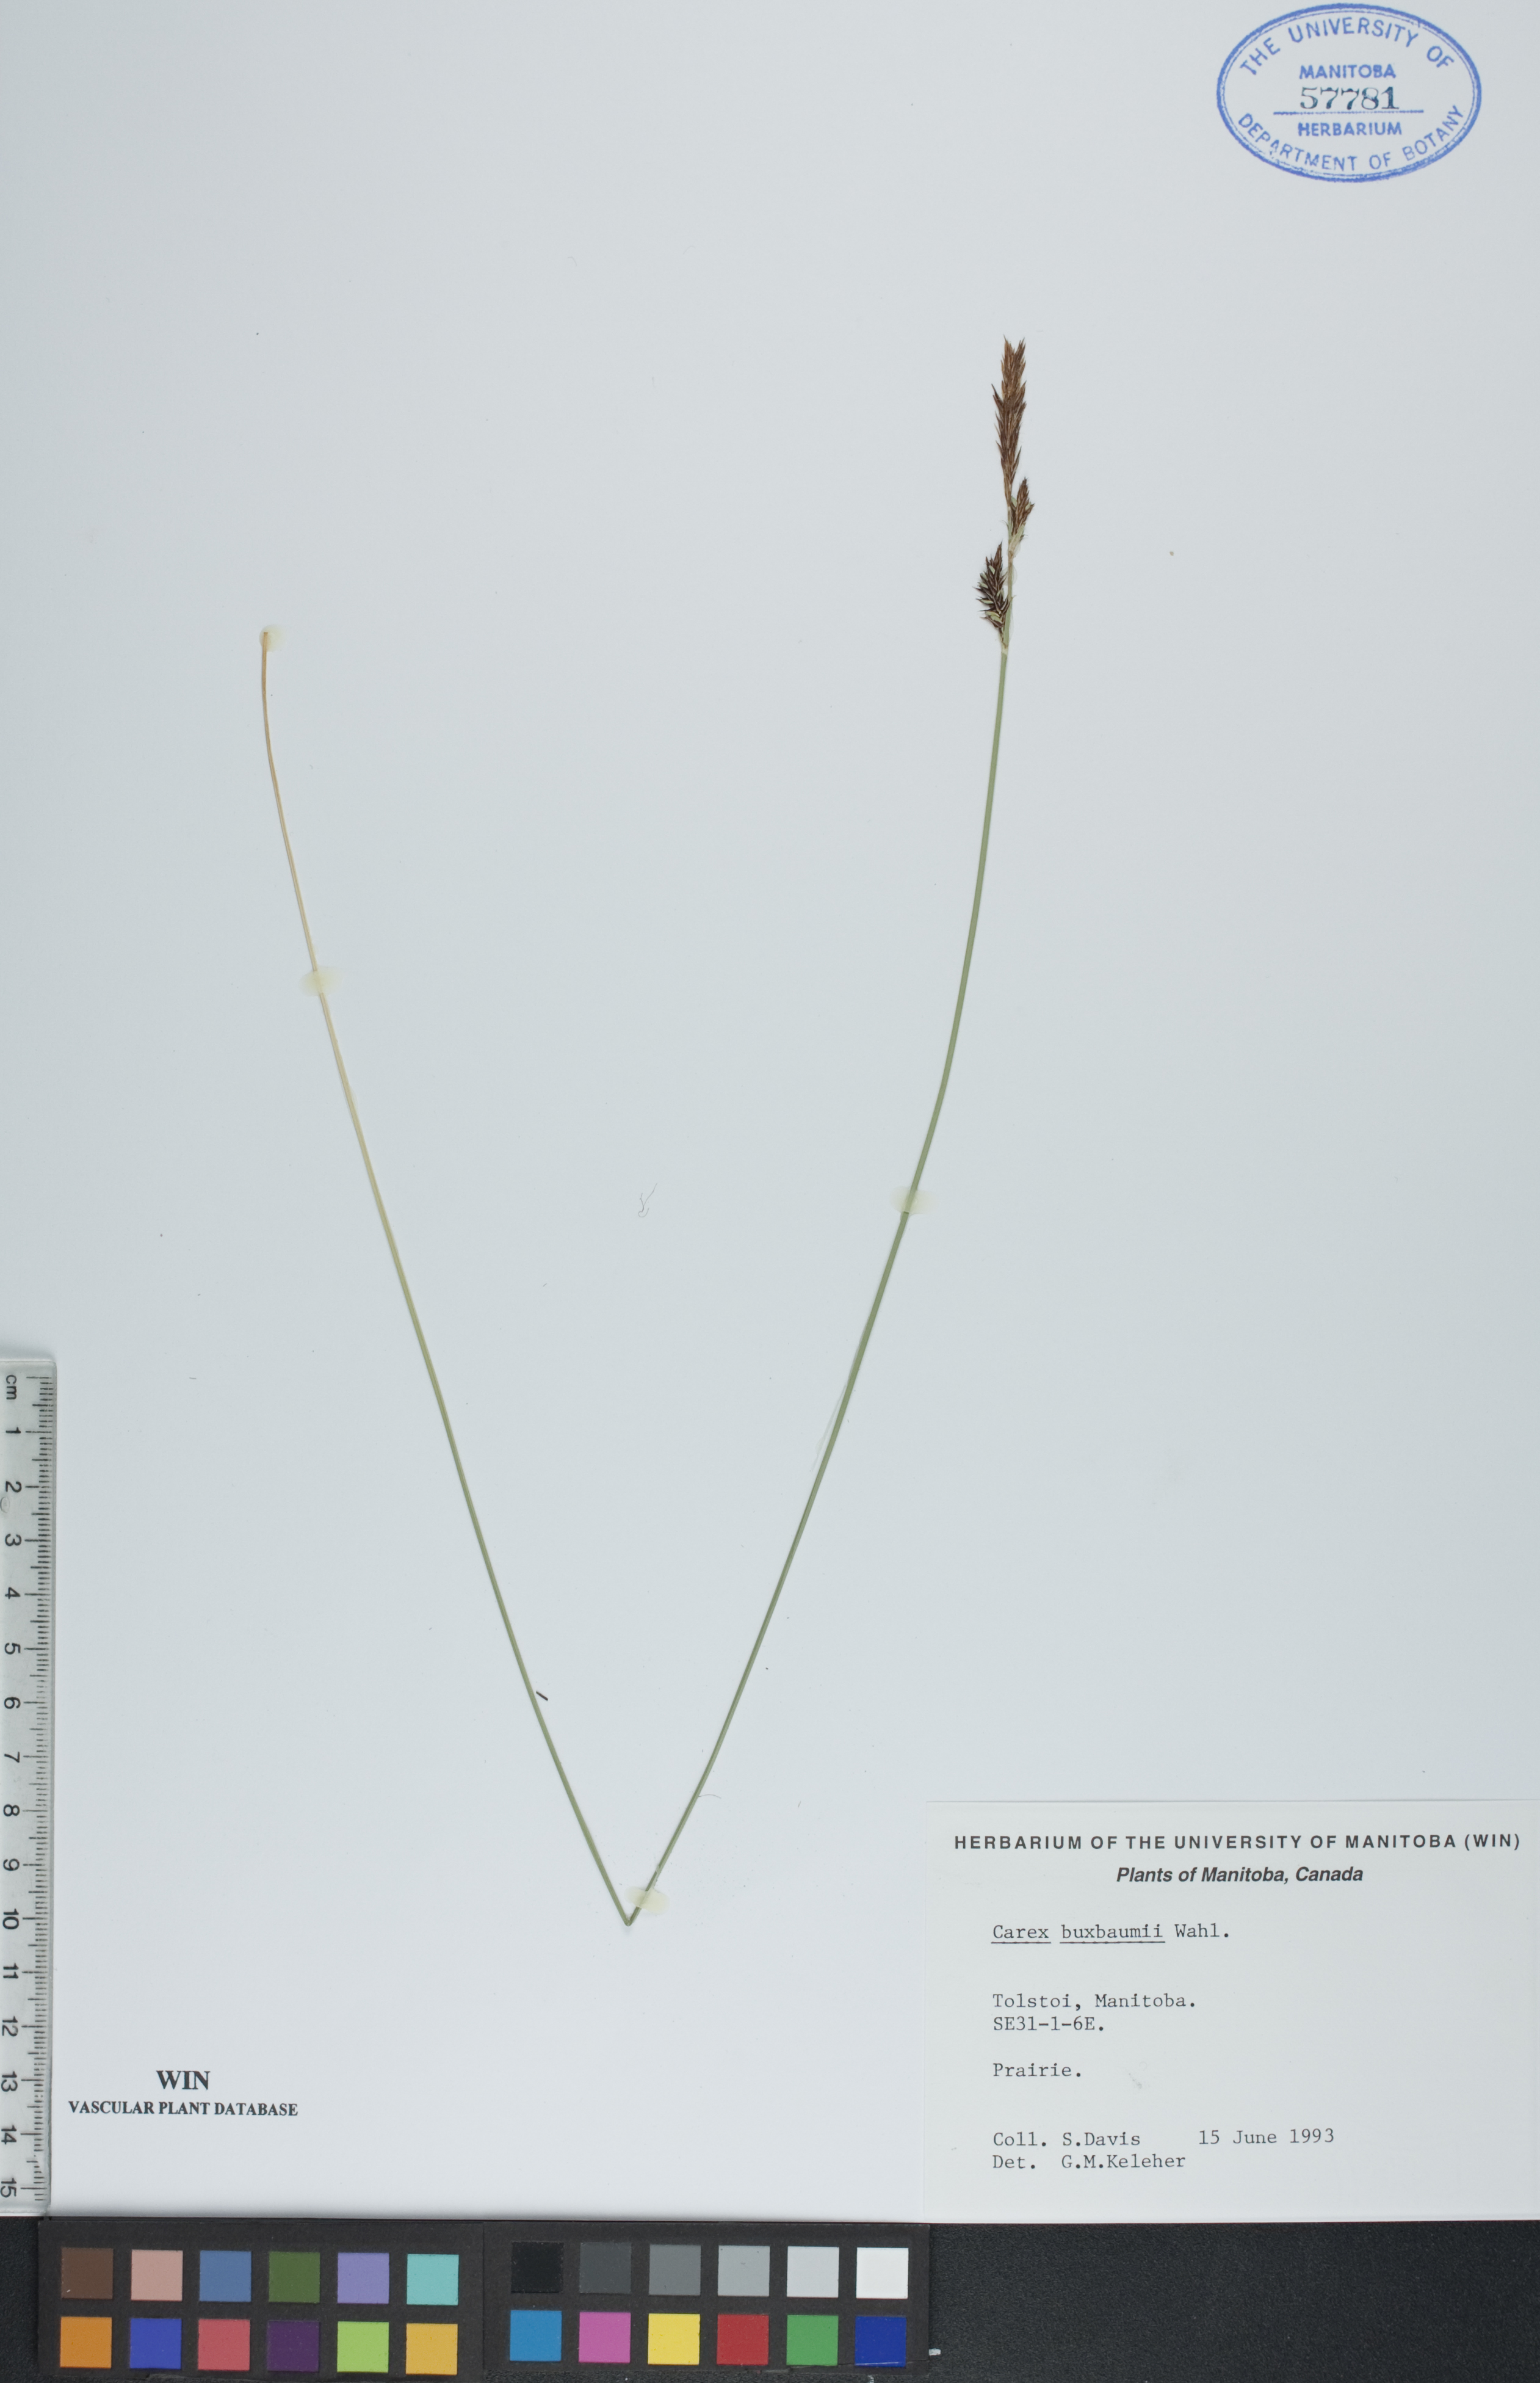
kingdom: Plantae
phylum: Tracheophyta
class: Liliopsida
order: Poales
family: Cyperaceae
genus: Carex
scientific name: Carex buxbaumii
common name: Club sedge
